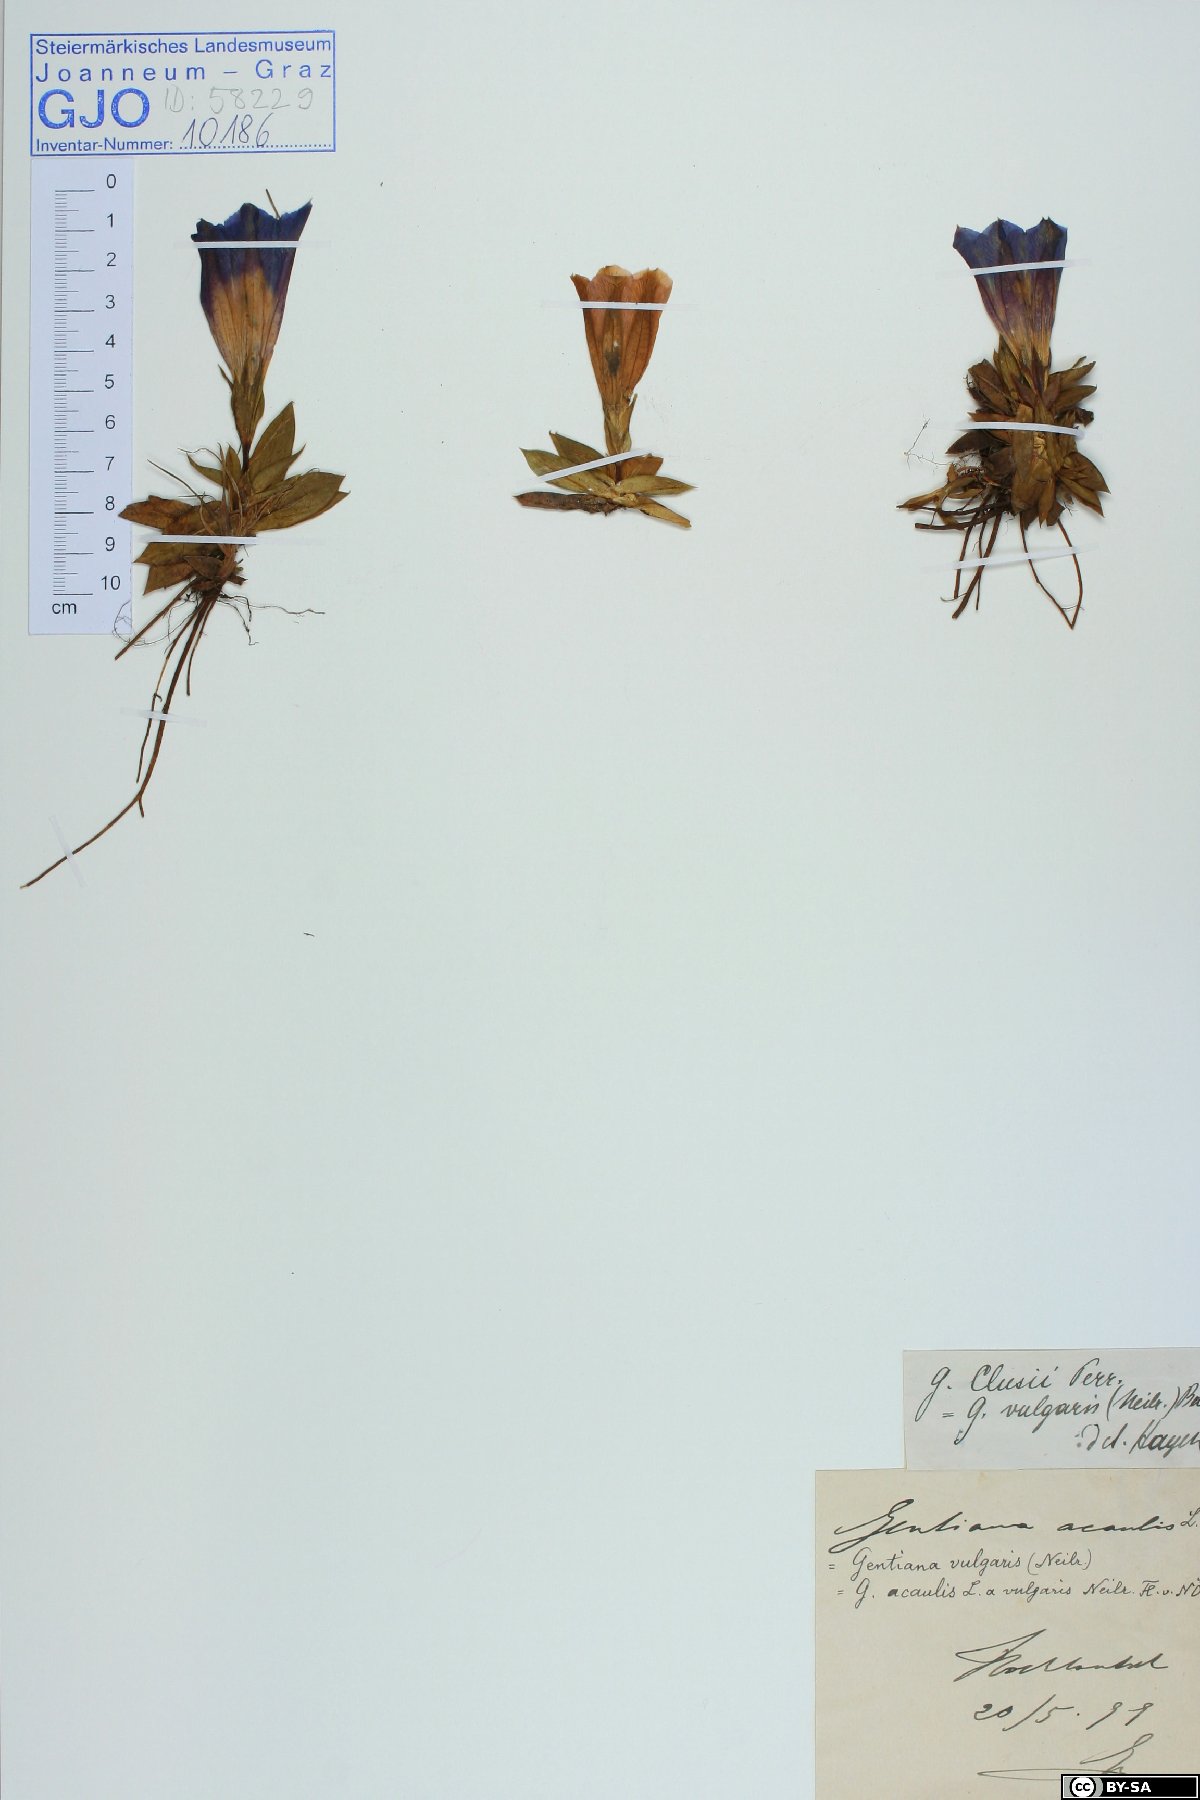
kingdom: Plantae
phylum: Tracheophyta
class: Magnoliopsida
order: Gentianales
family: Gentianaceae
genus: Gentiana
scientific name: Gentiana clusii
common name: Trumpet gentian
